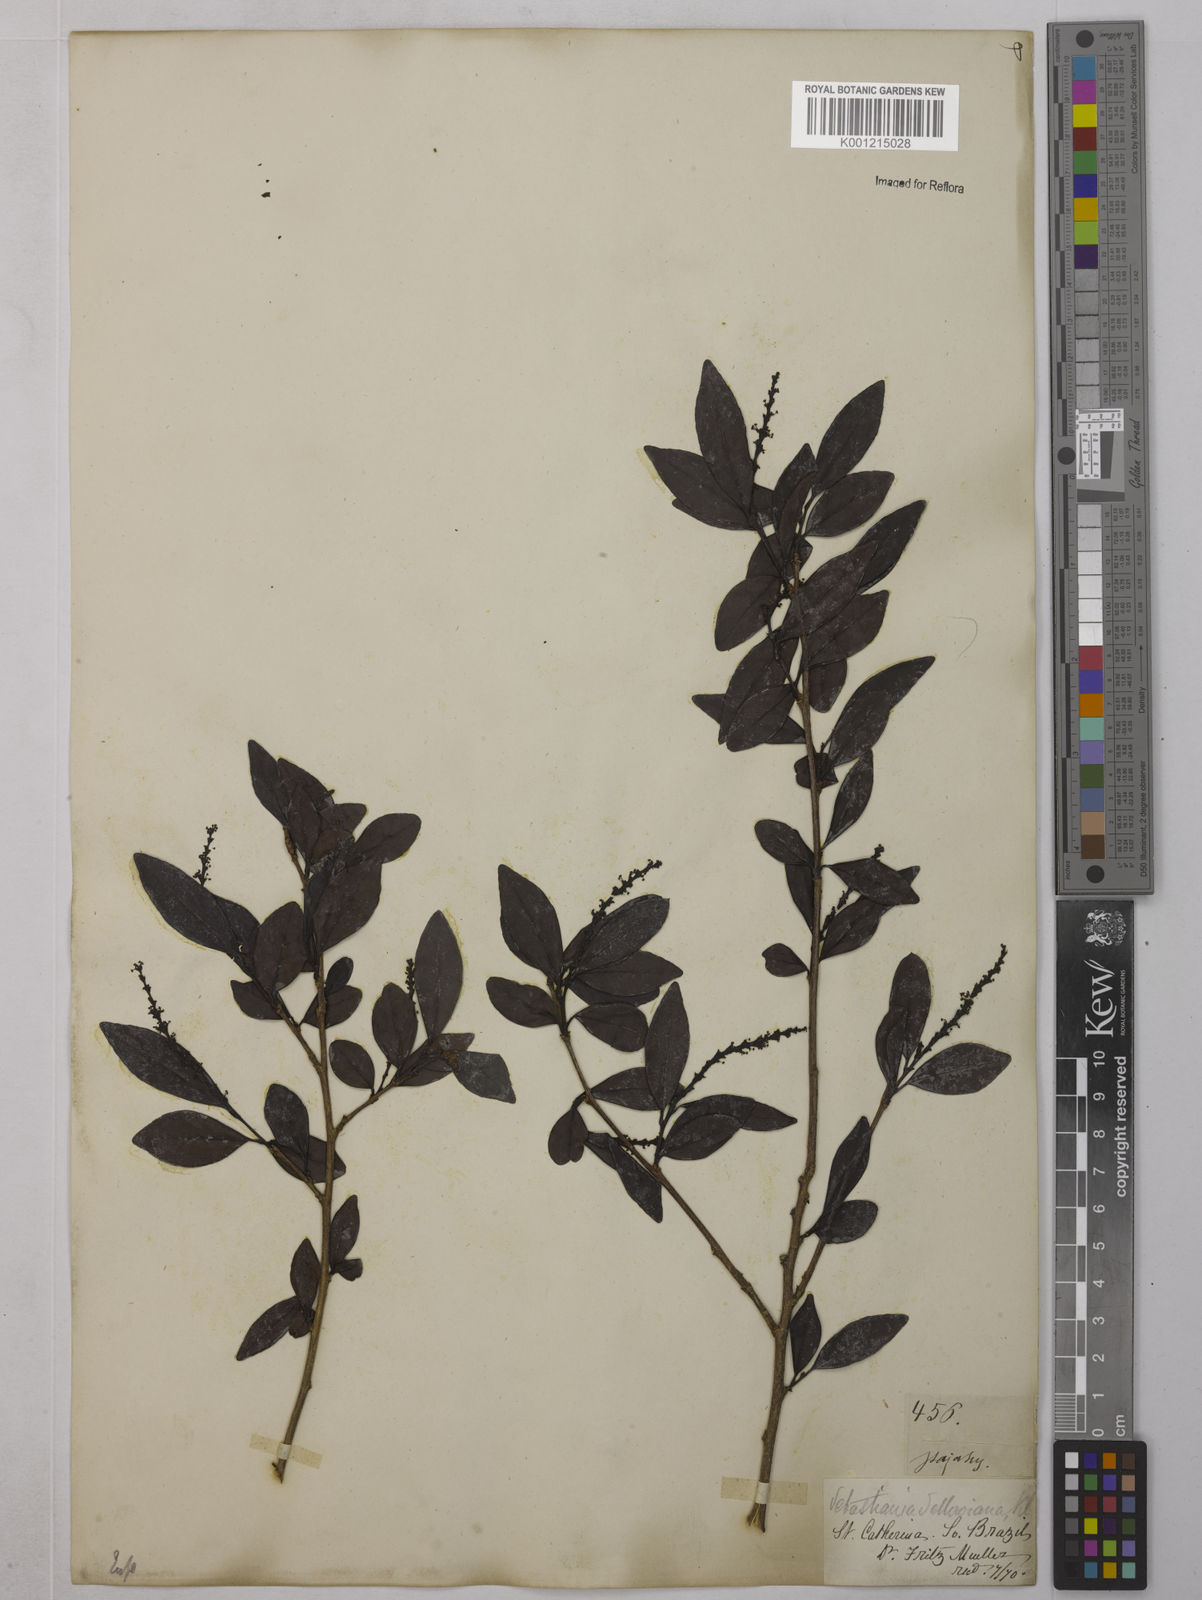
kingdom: Plantae
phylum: Tracheophyta
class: Magnoliopsida
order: Malpighiales
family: Euphorbiaceae
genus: Sebastiania
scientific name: Sebastiania brasiliensis
